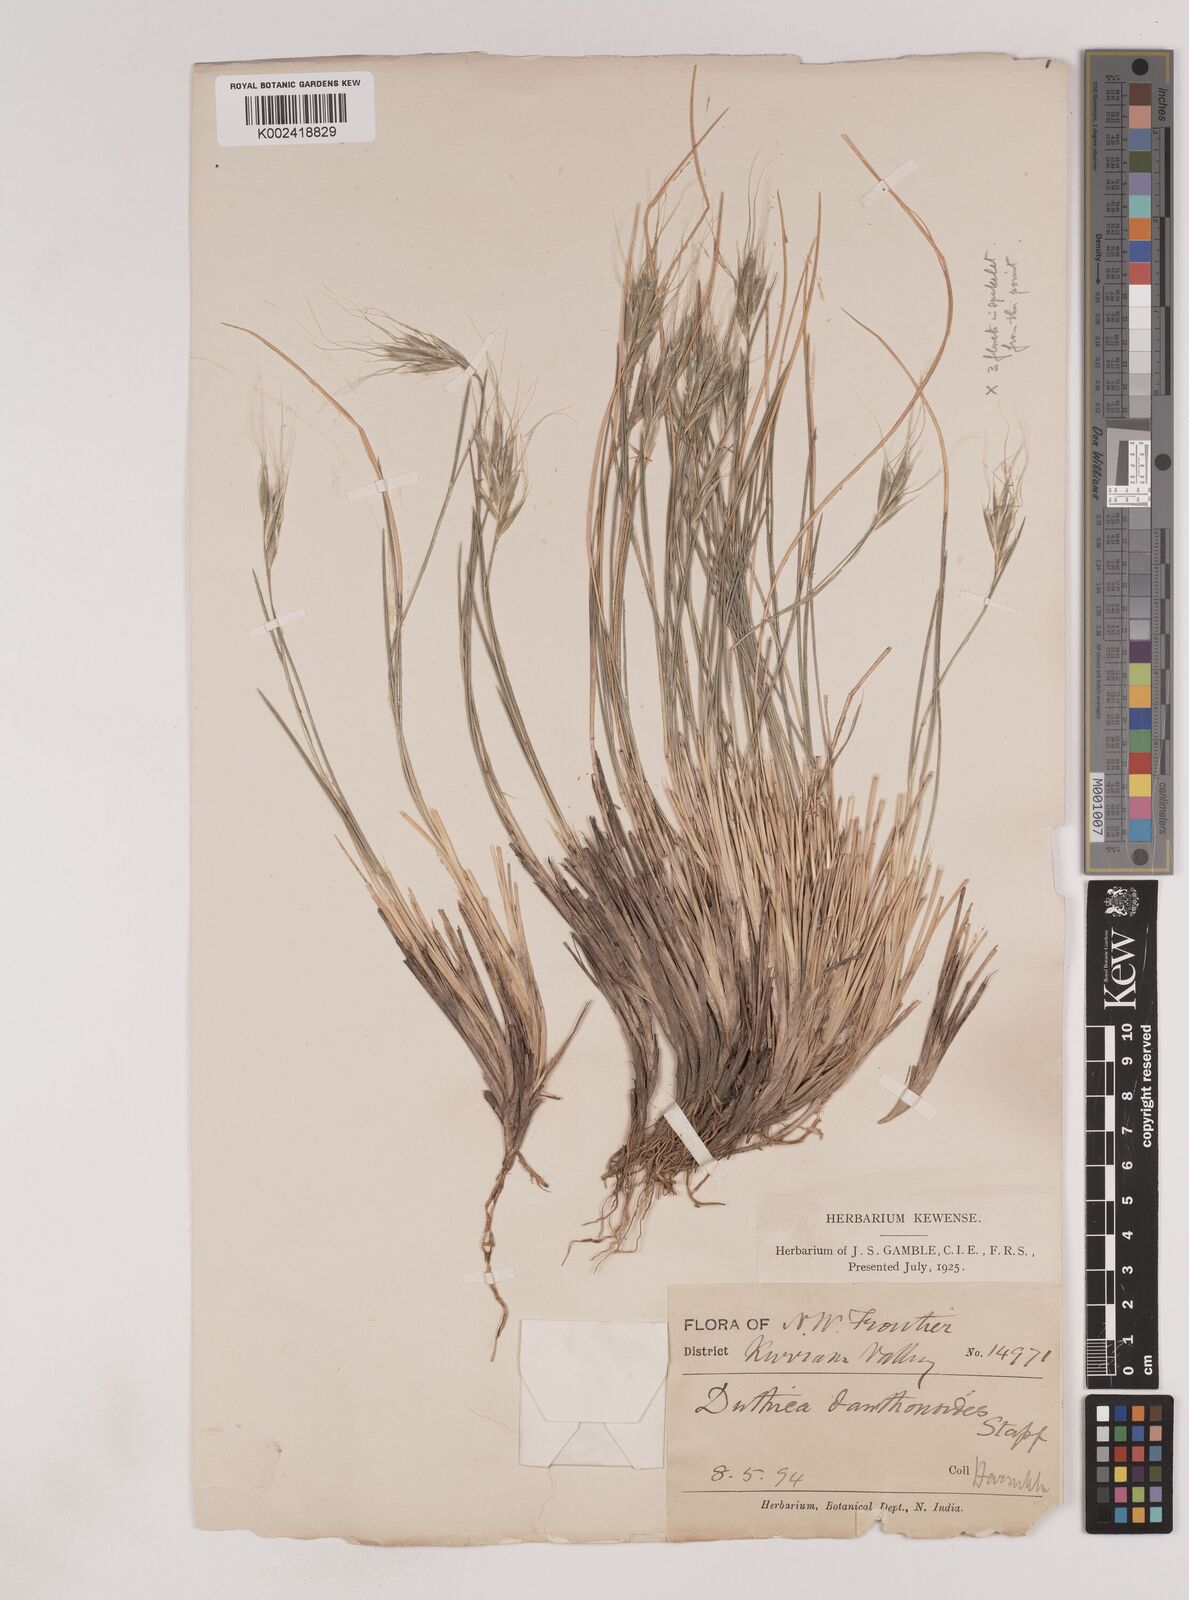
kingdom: Plantae
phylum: Tracheophyta
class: Liliopsida
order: Poales
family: Poaceae
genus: Duthiea
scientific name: Duthiea oligostachya
